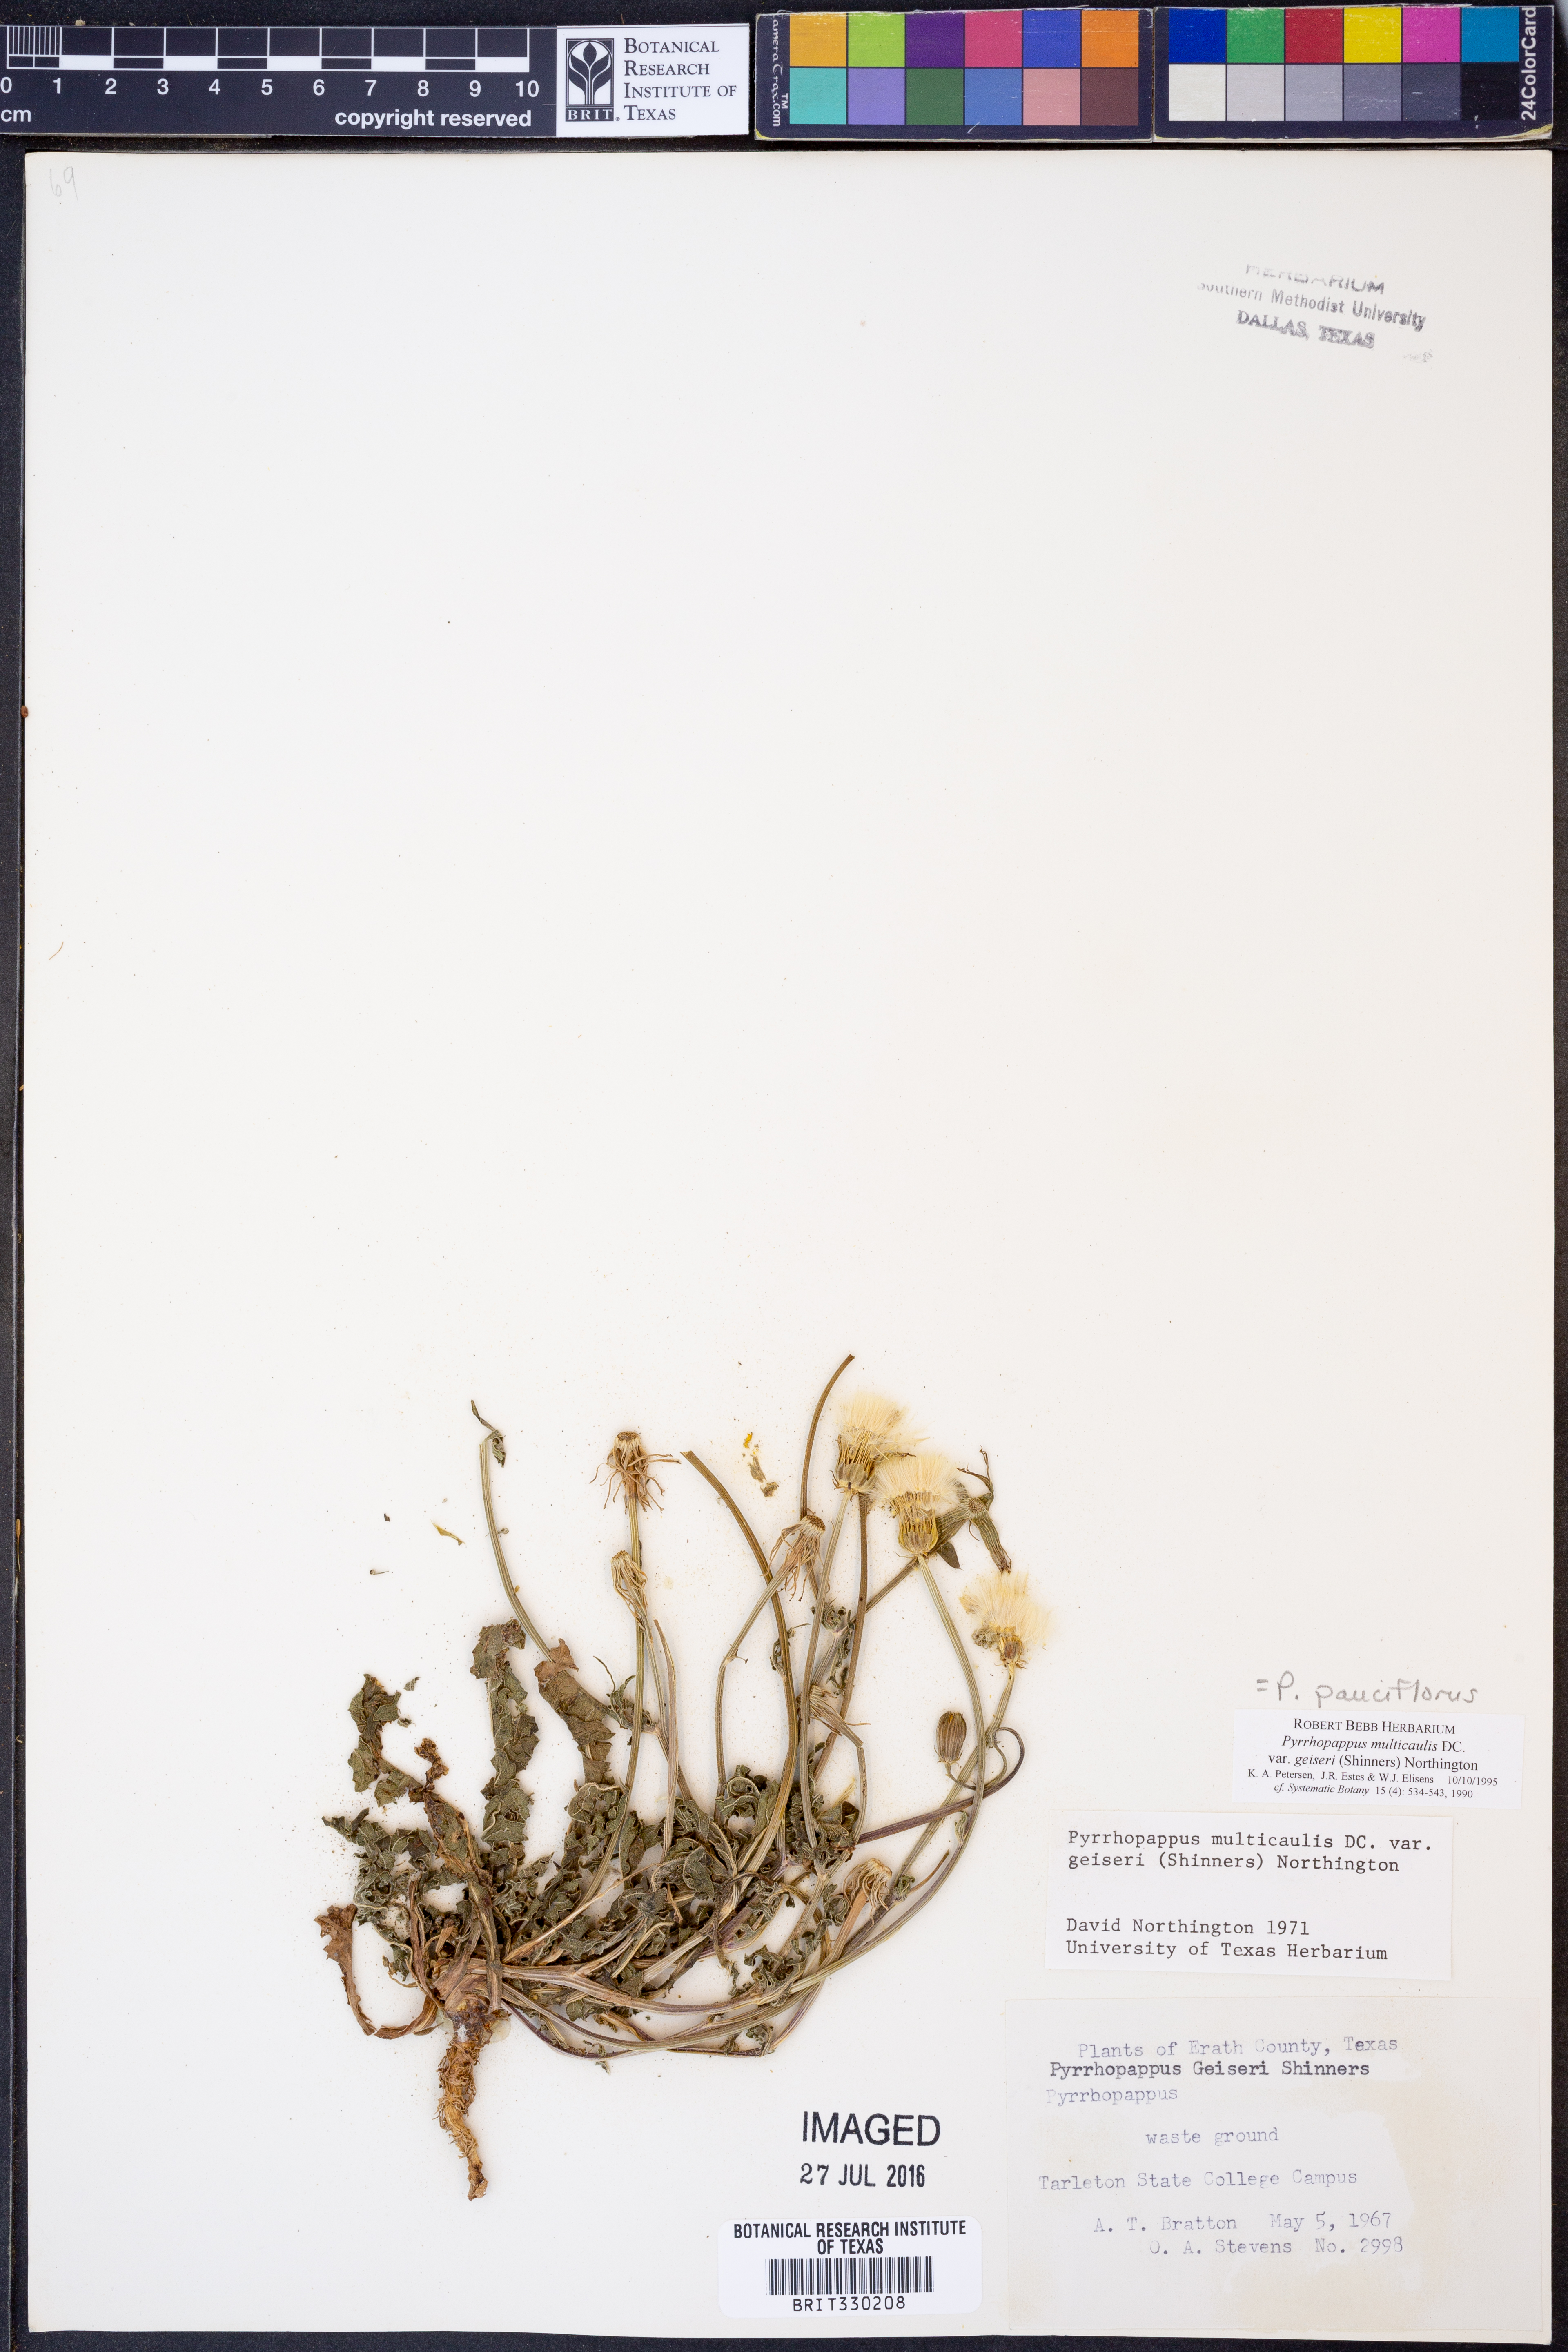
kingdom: Plantae
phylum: Tracheophyta
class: Magnoliopsida
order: Asterales
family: Asteraceae
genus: Pyrrhopappus
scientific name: Pyrrhopappus pauciflorus
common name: Texas false dandelion
